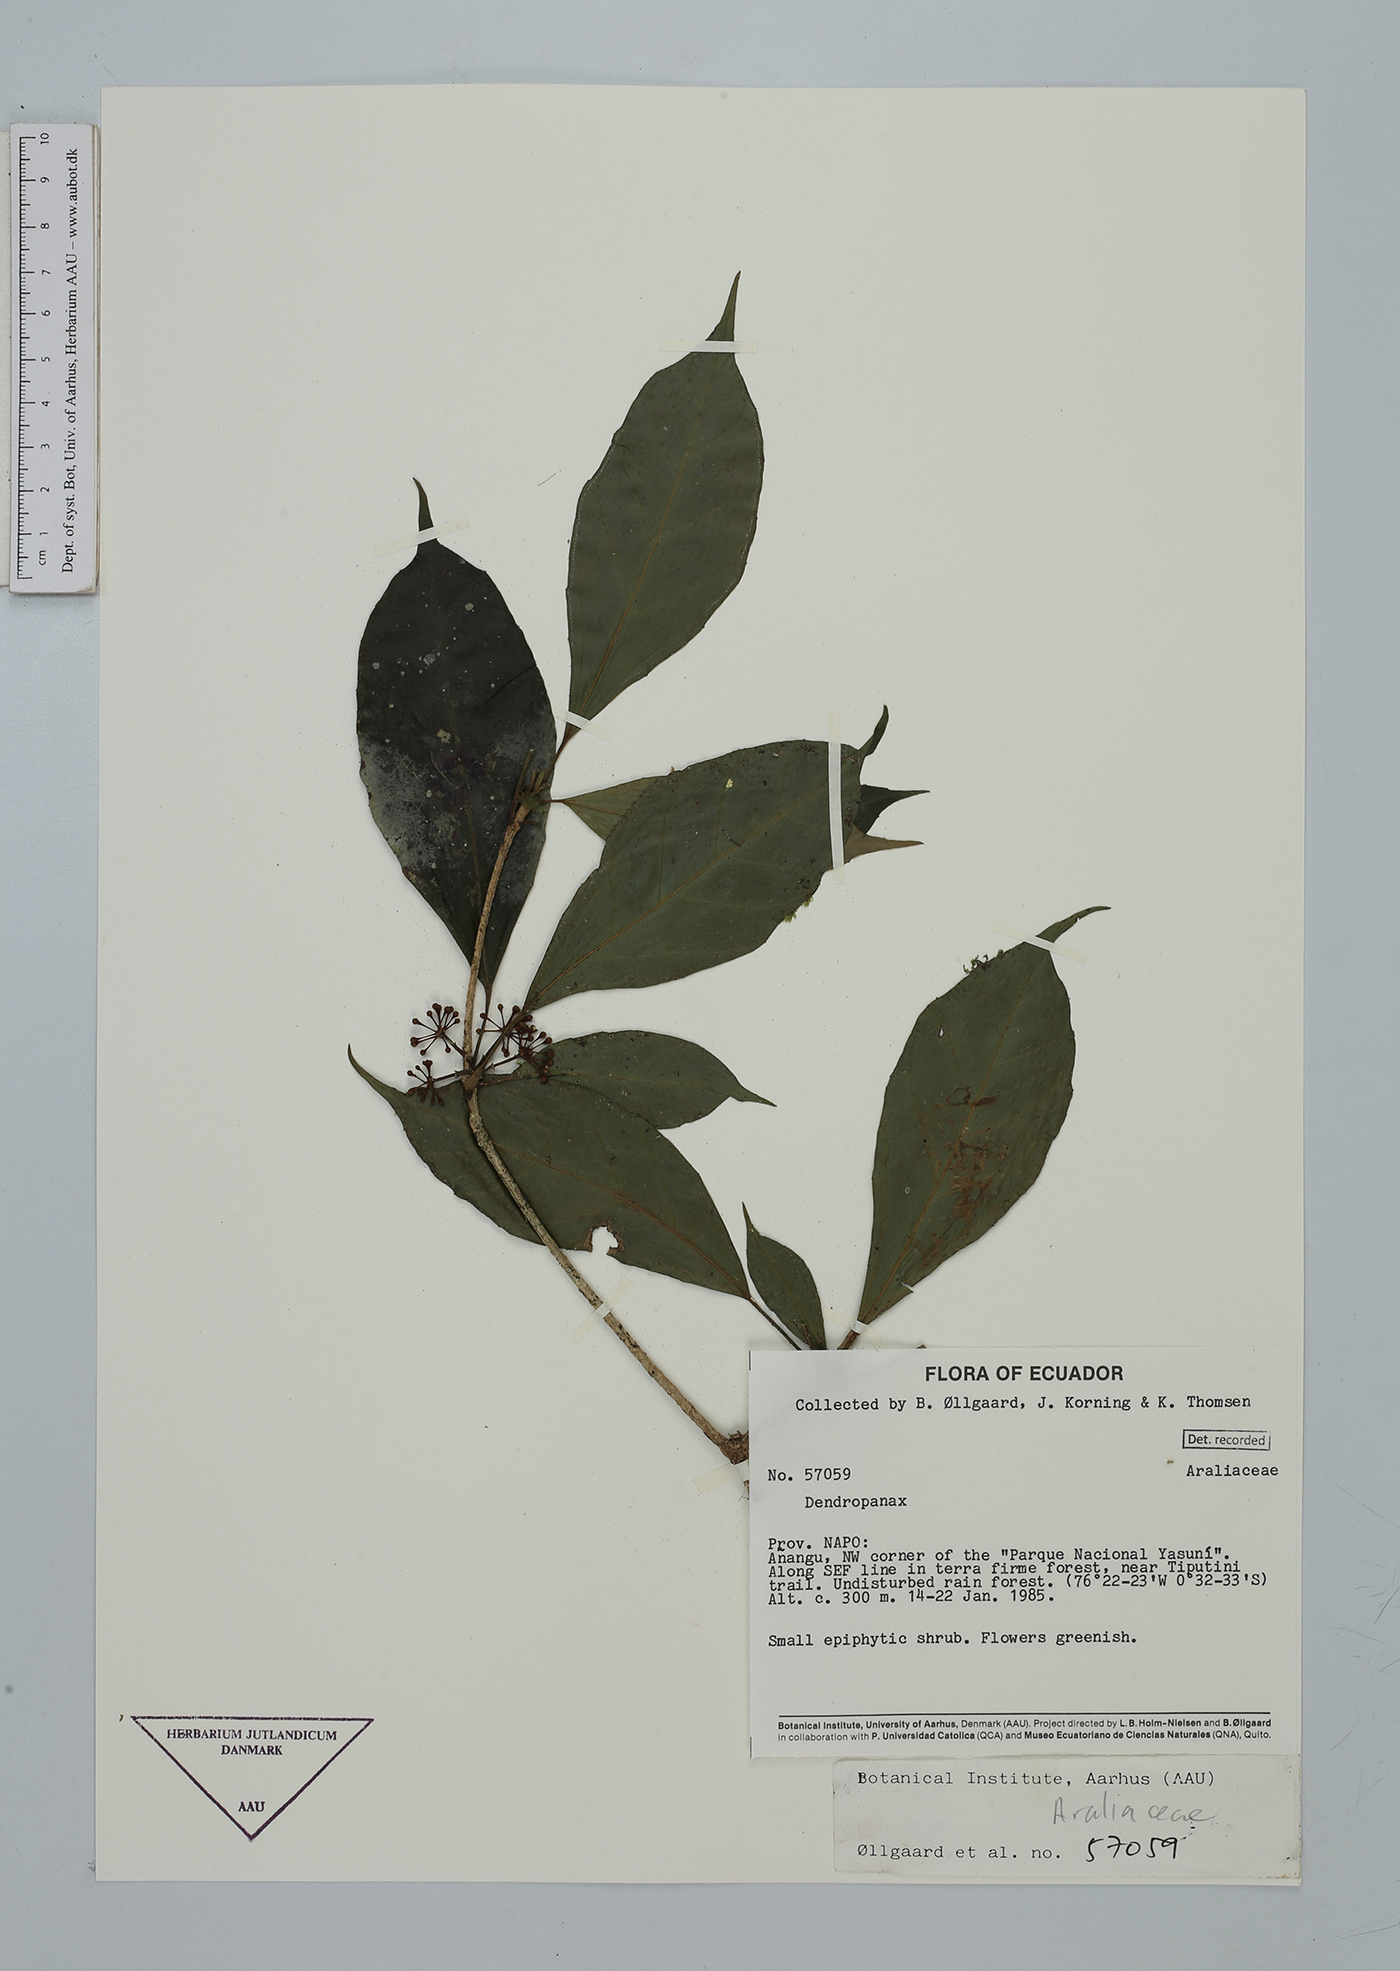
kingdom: Plantae
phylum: Tracheophyta
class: Magnoliopsida
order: Apiales
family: Araliaceae
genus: Dendropanax
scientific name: Dendropanax
